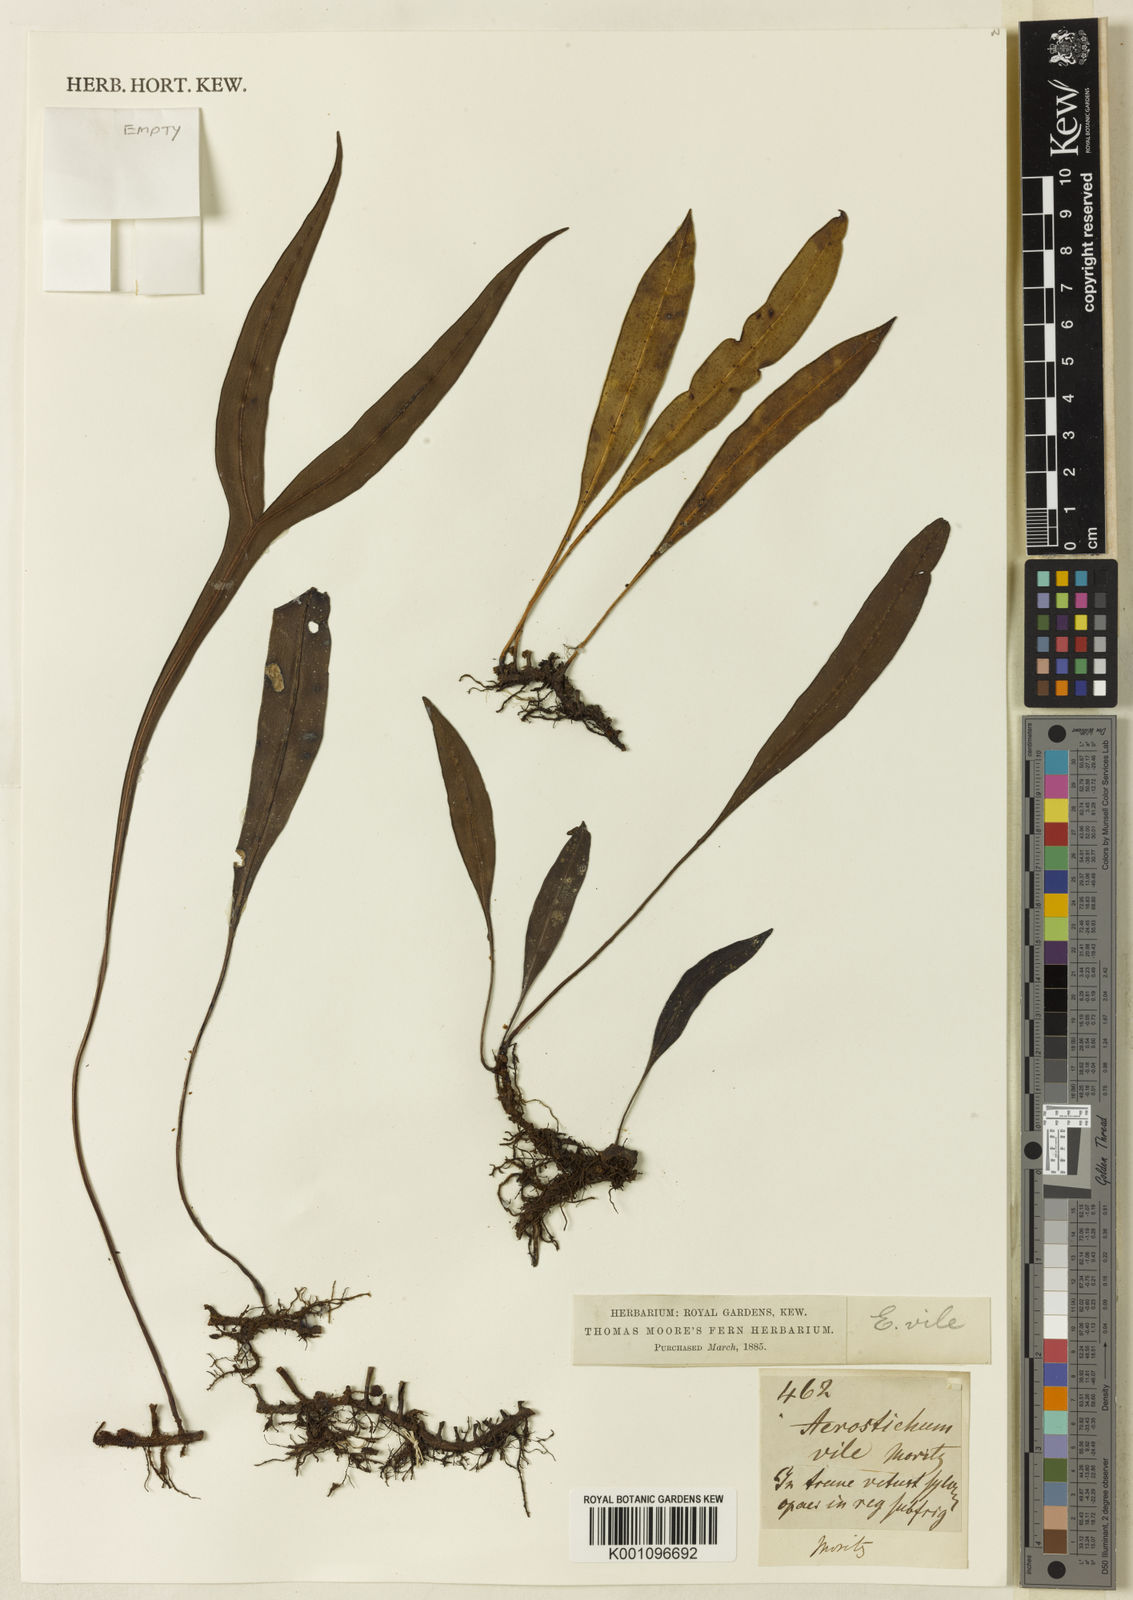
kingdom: Plantae
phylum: Tracheophyta
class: Polypodiopsida
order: Polypodiales
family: Dryopteridaceae
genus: Elaphoglossum
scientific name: Elaphoglossum sellowianum
